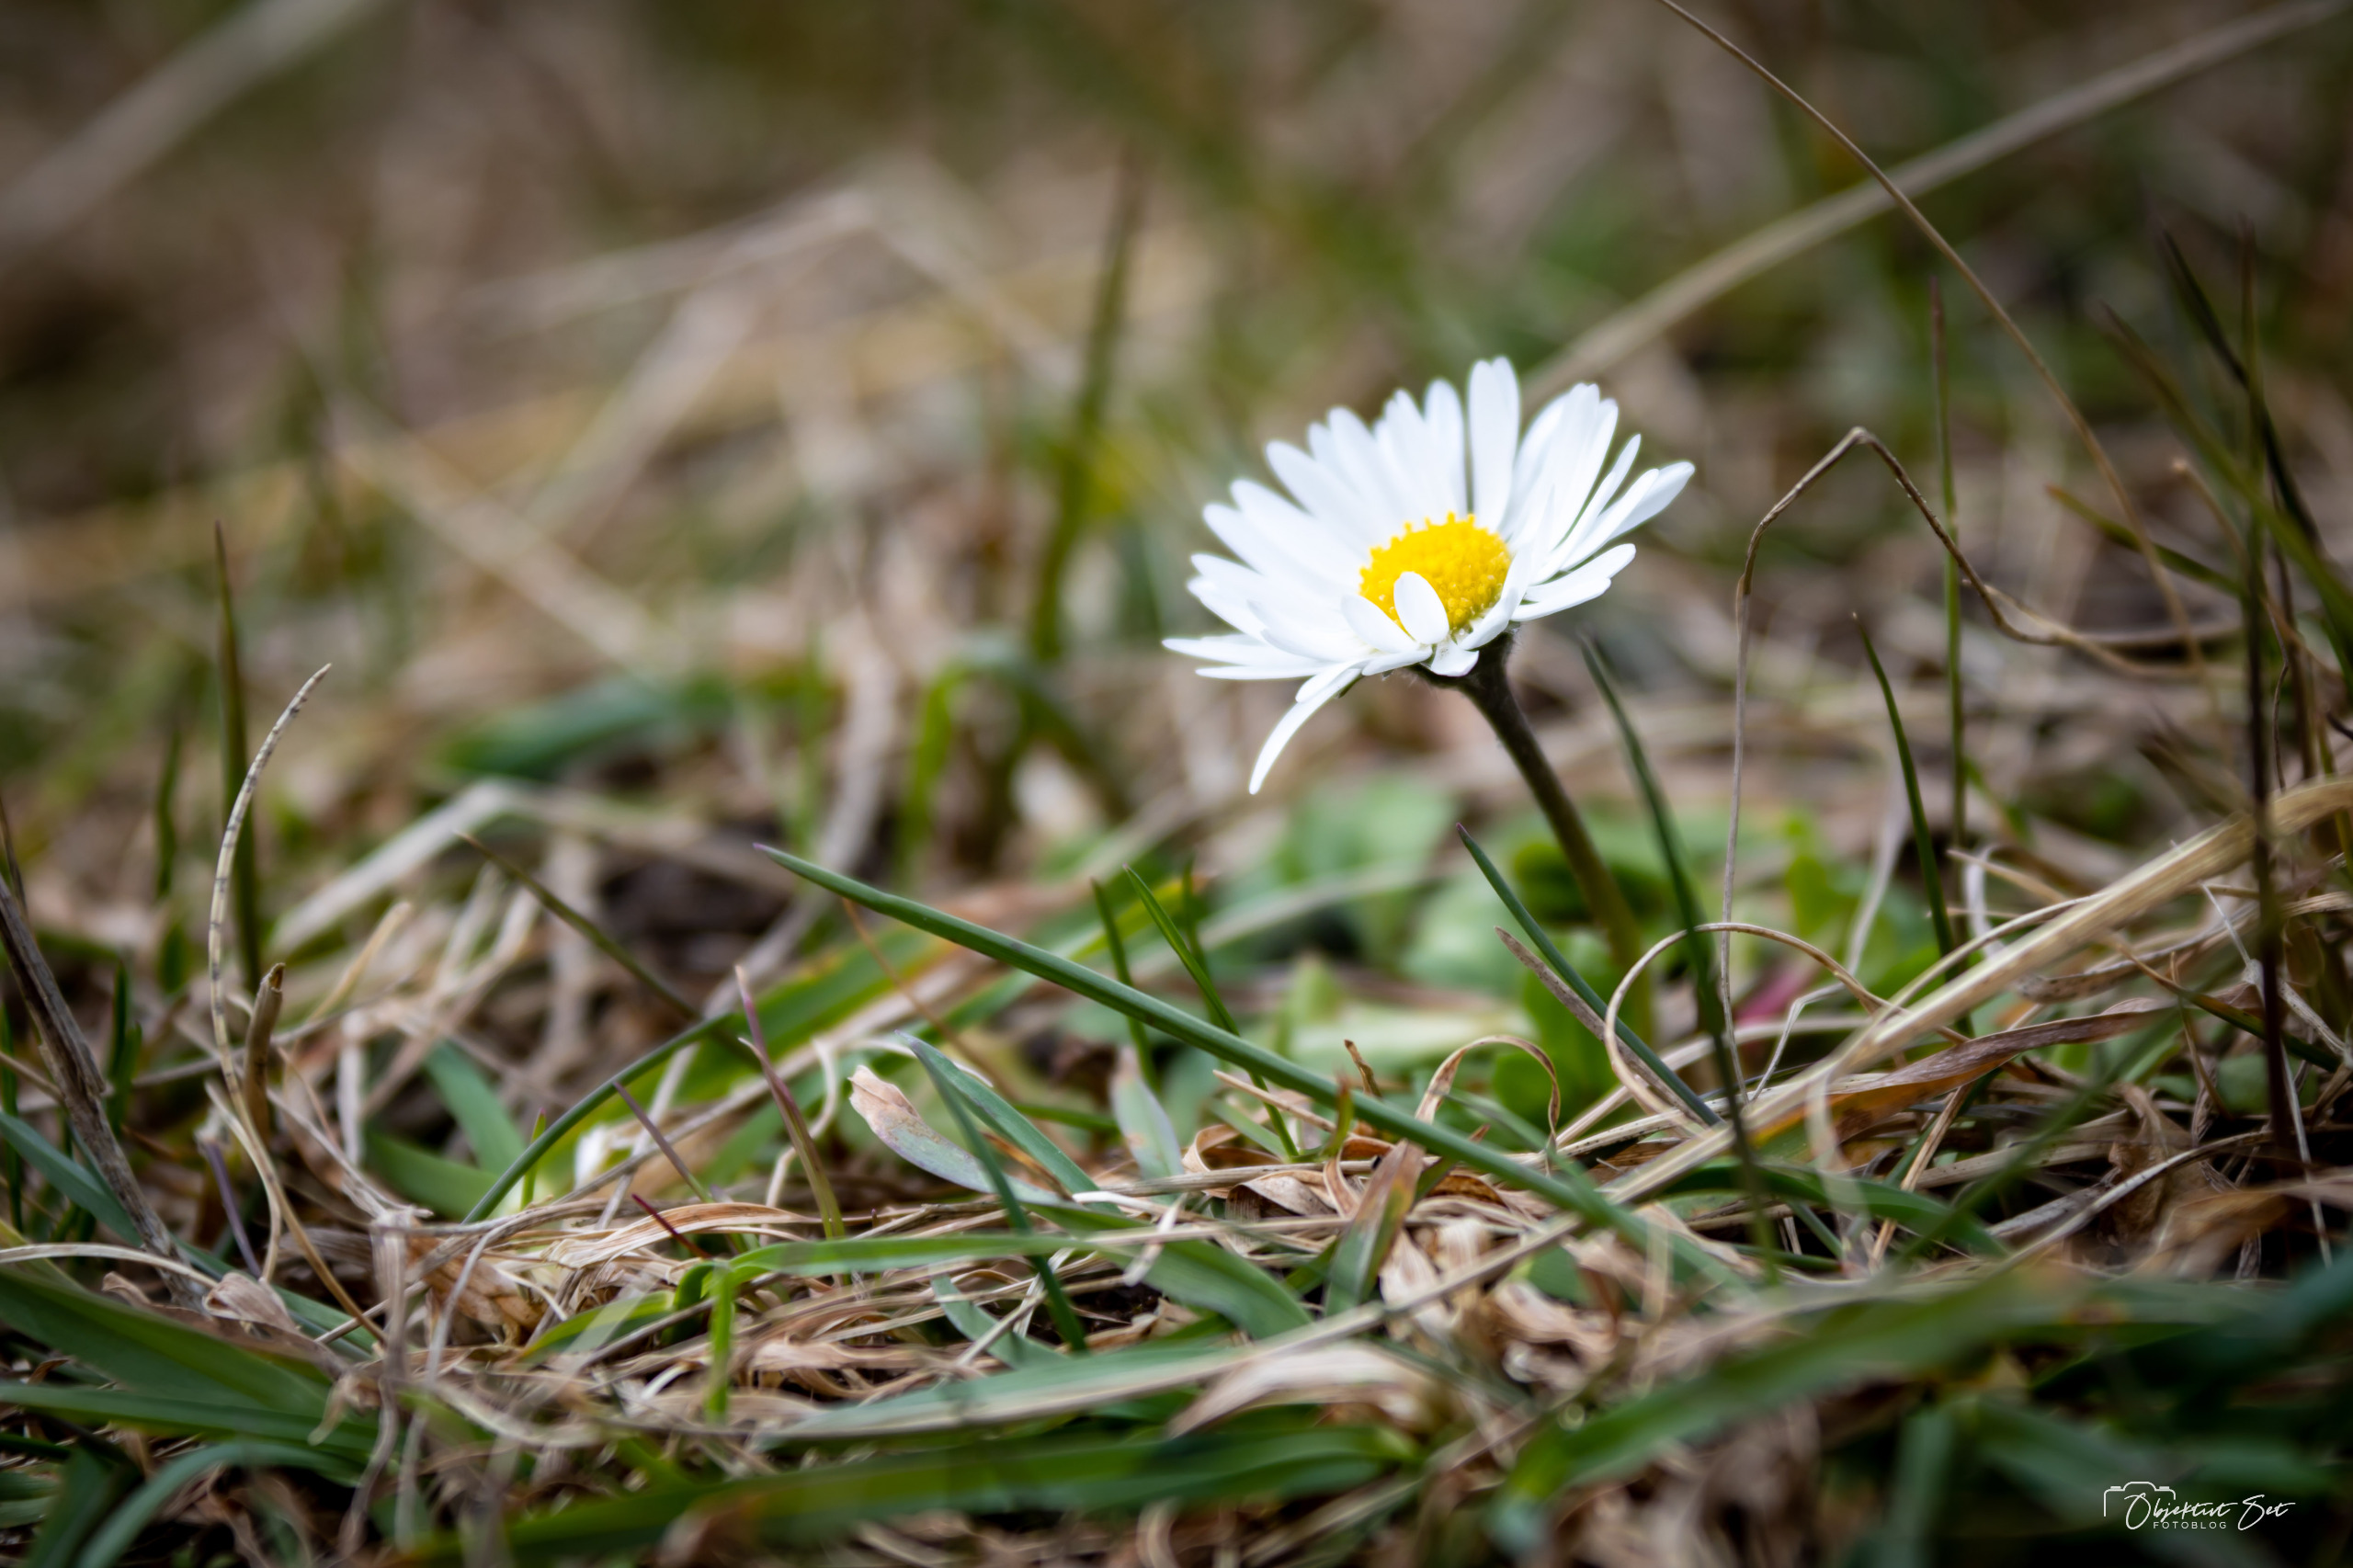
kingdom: Plantae
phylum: Tracheophyta
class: Magnoliopsida
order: Asterales
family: Asteraceae
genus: Bellis
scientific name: Bellis perennis
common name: Tusindfryd
